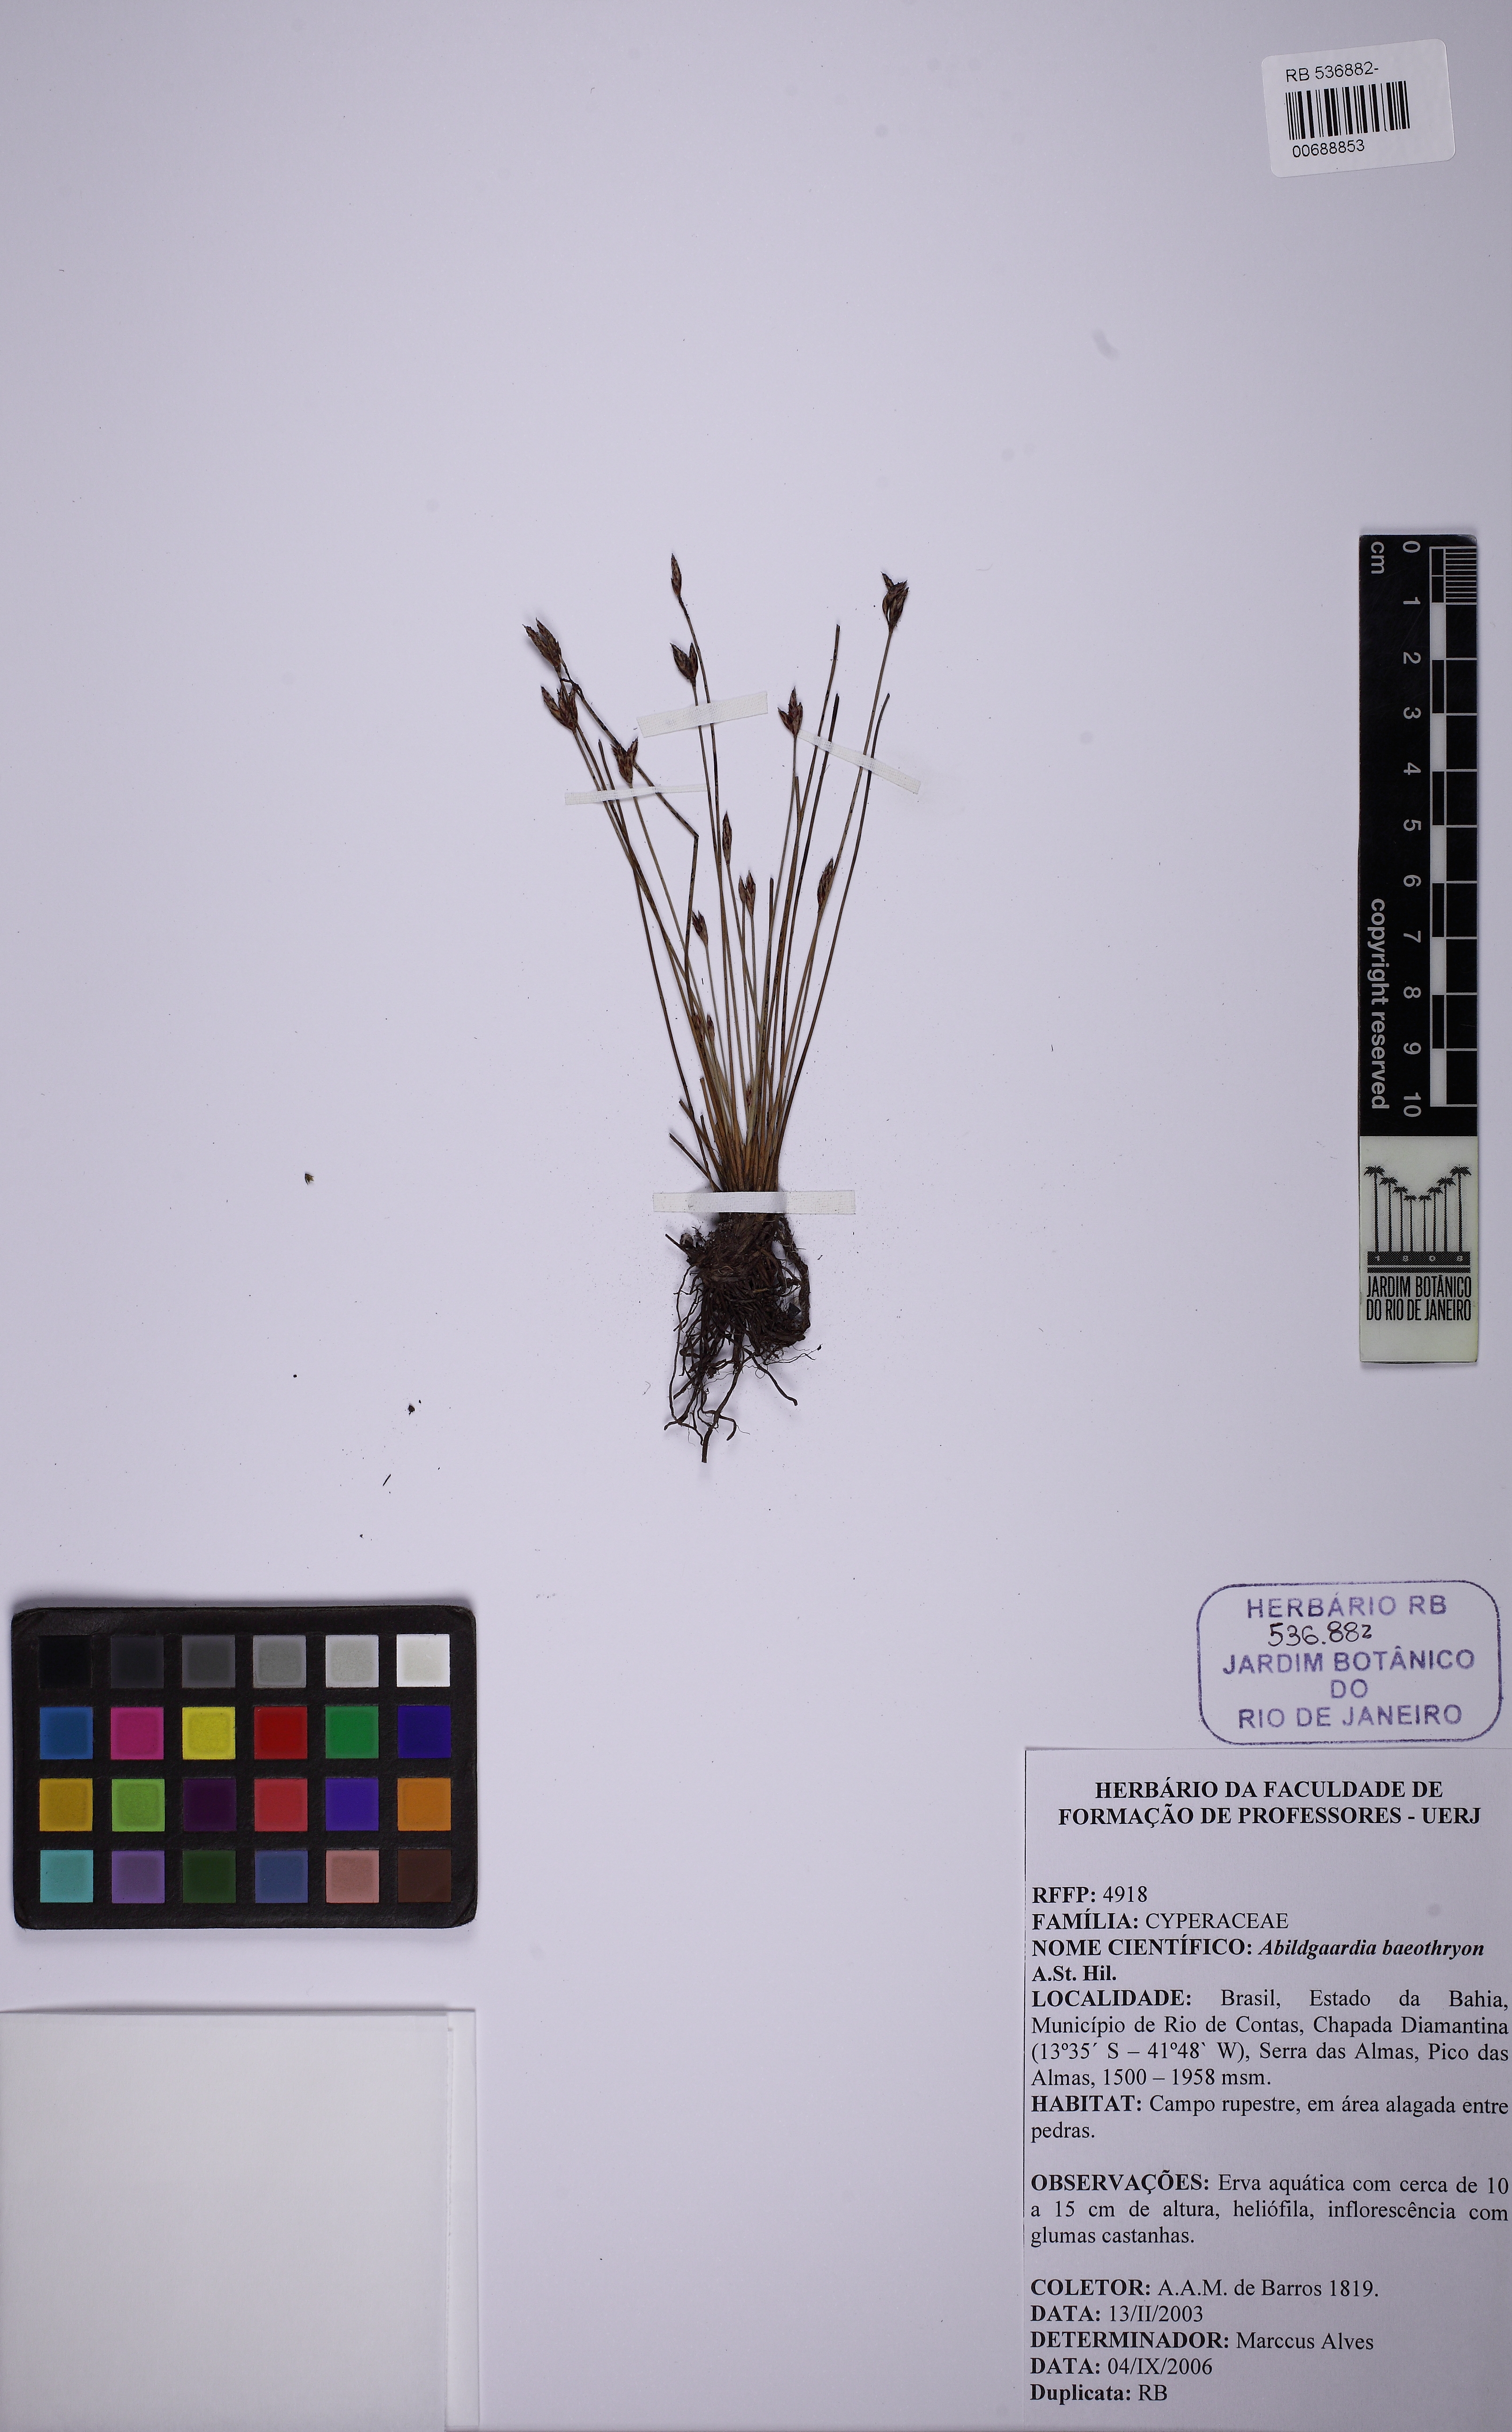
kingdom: Plantae
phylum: Tracheophyta
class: Liliopsida
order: Poales
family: Cyperaceae
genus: Fimbristylis
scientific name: Fimbristylis bahiensis
